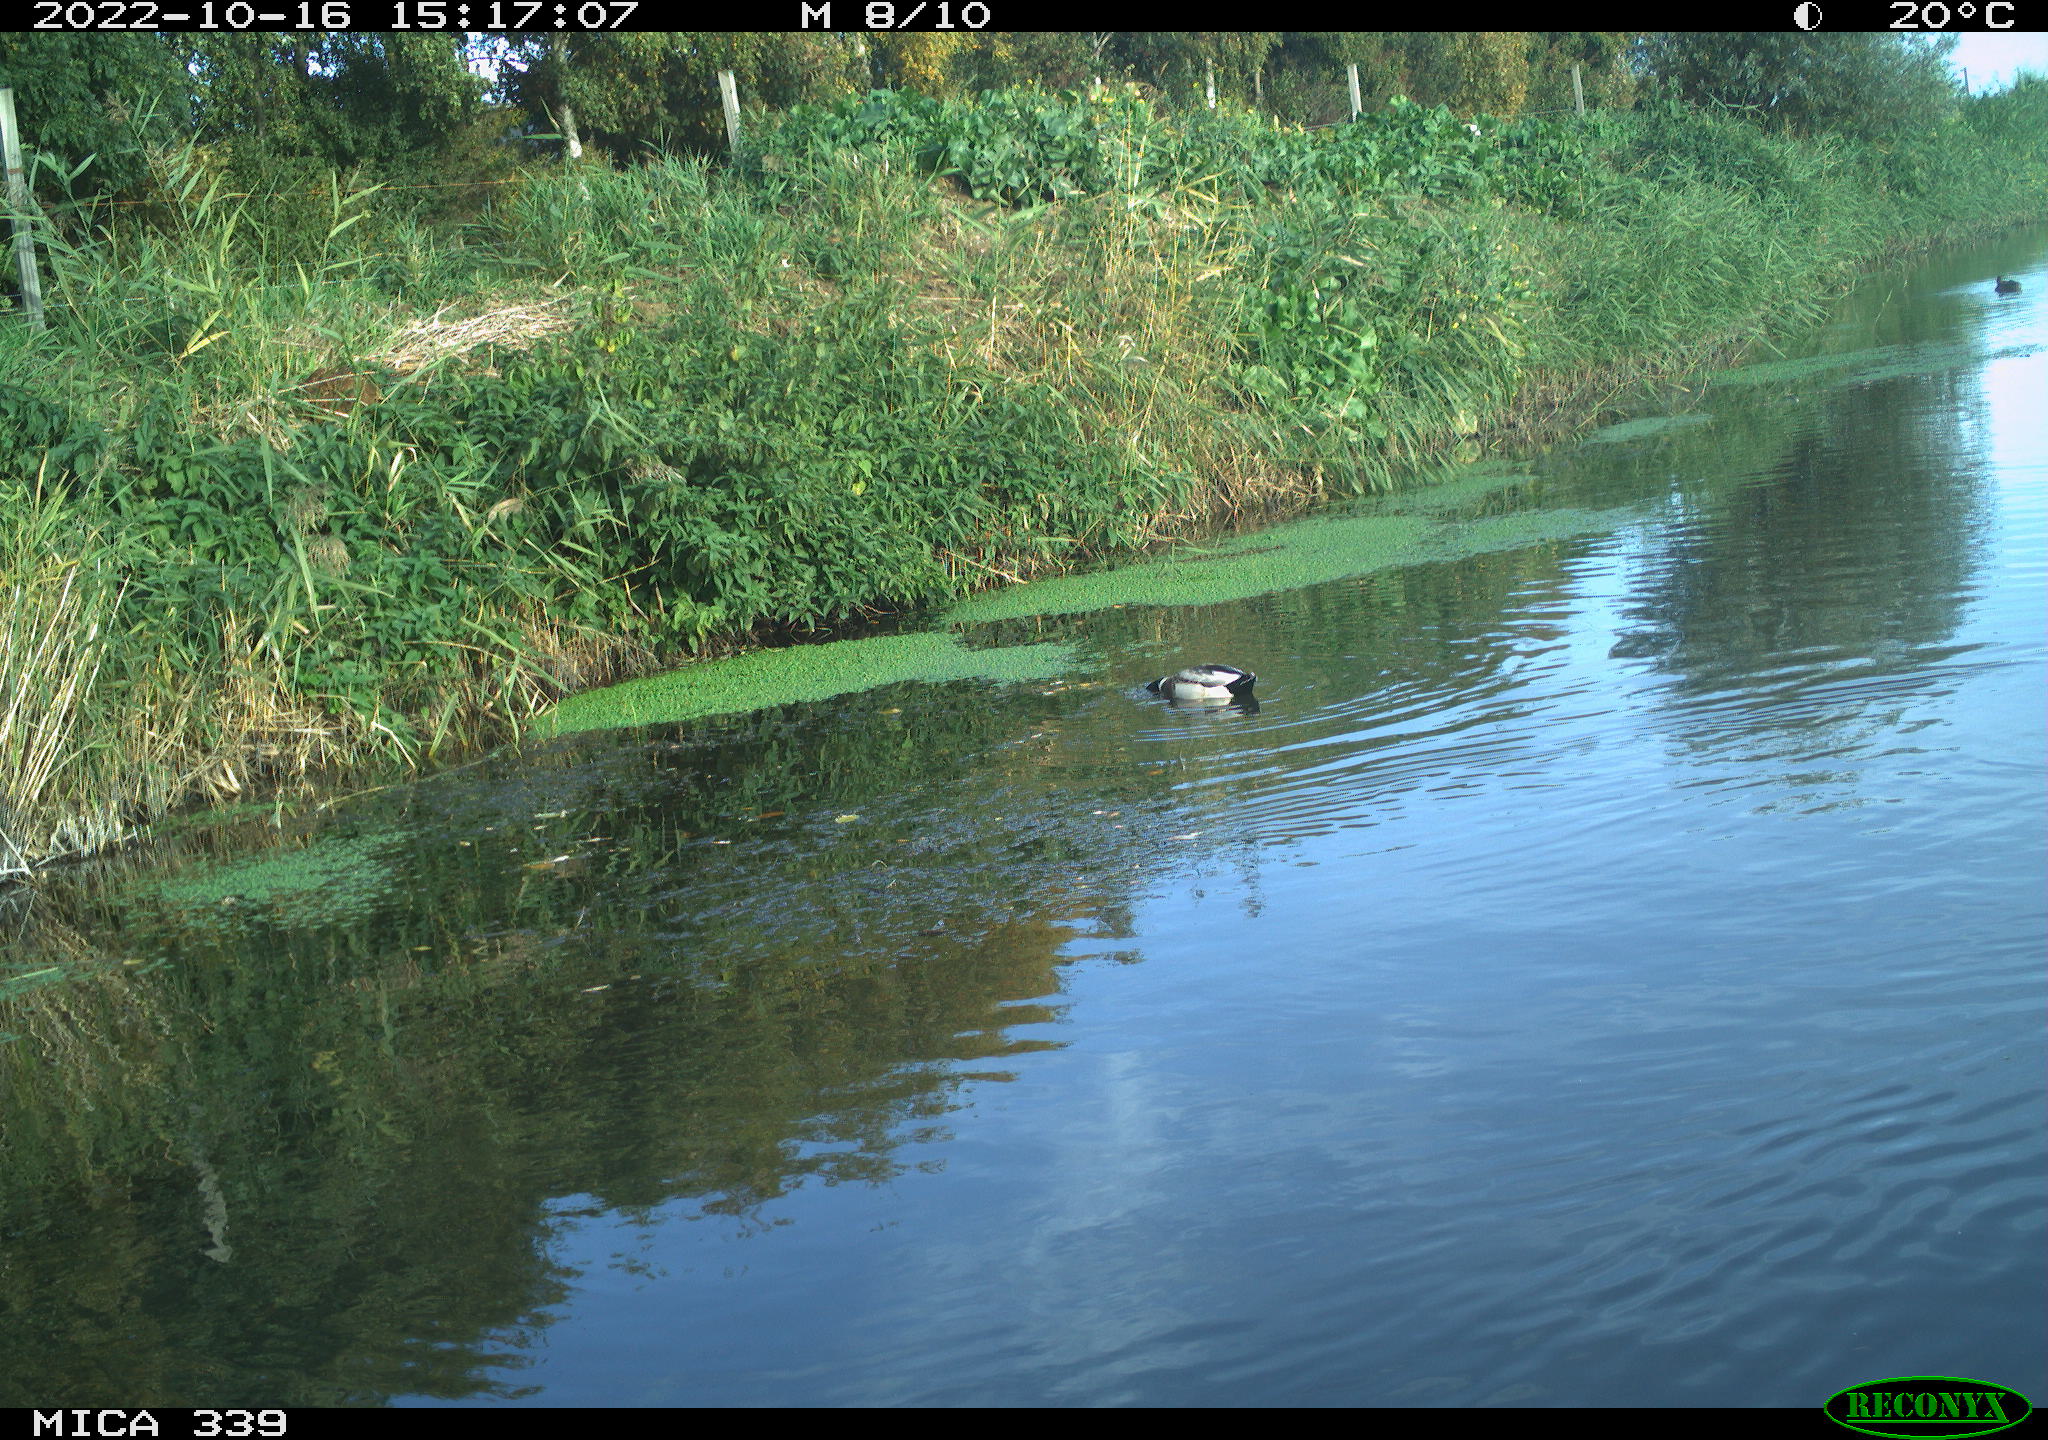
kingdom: Animalia
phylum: Chordata
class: Aves
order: Anseriformes
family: Anatidae
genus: Anas
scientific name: Anas platyrhynchos
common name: Mallard
